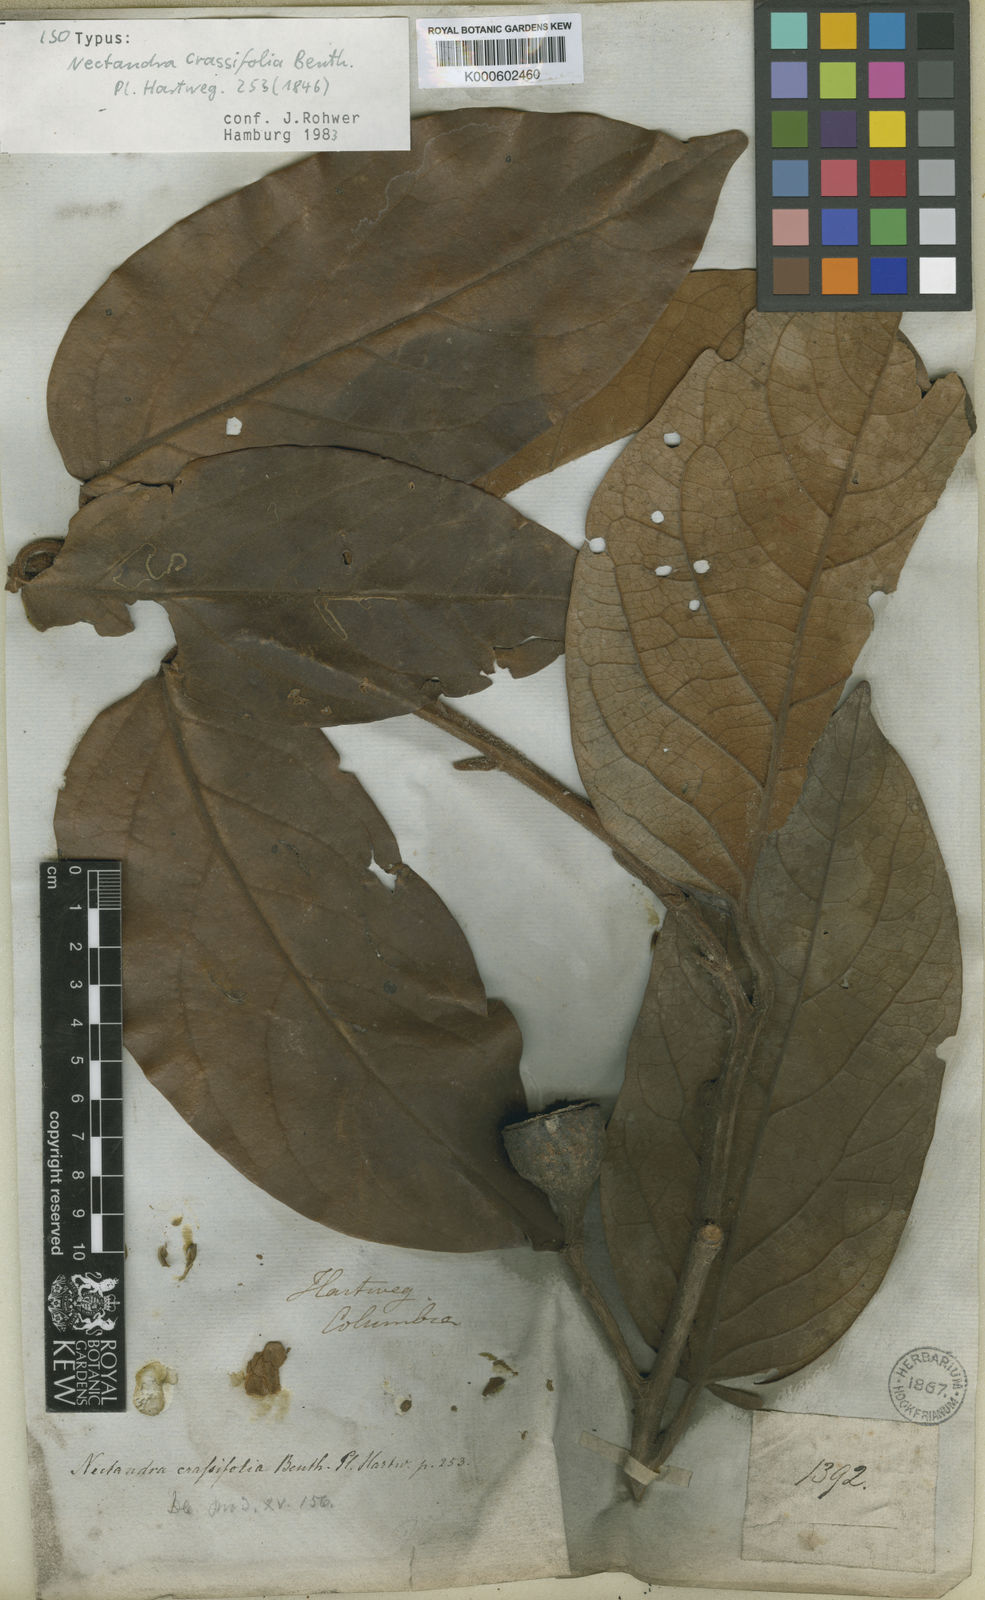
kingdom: Plantae
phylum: Tracheophyta
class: Magnoliopsida
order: Laurales
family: Lauraceae
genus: Ocotea
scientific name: Ocotea benthamiana
